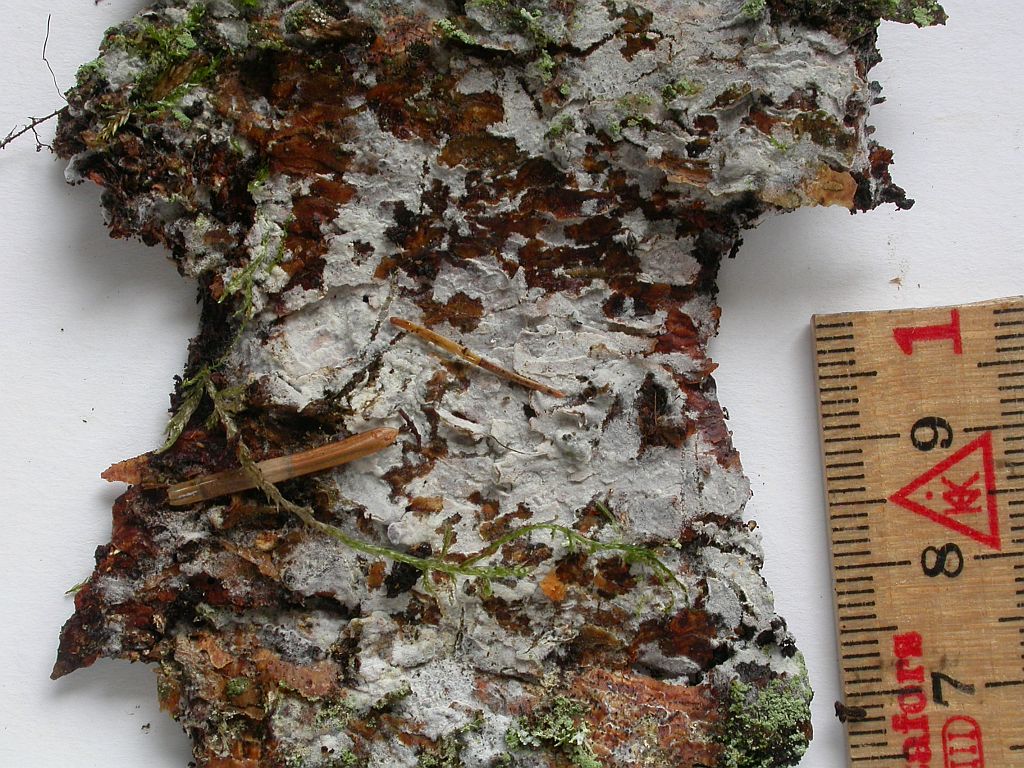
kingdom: Fungi
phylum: Basidiomycota
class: Agaricomycetes
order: Cantharellales
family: Botryobasidiaceae
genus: Botryobasidium
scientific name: Botryobasidium subcoronatum
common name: almindelig spindhinde
